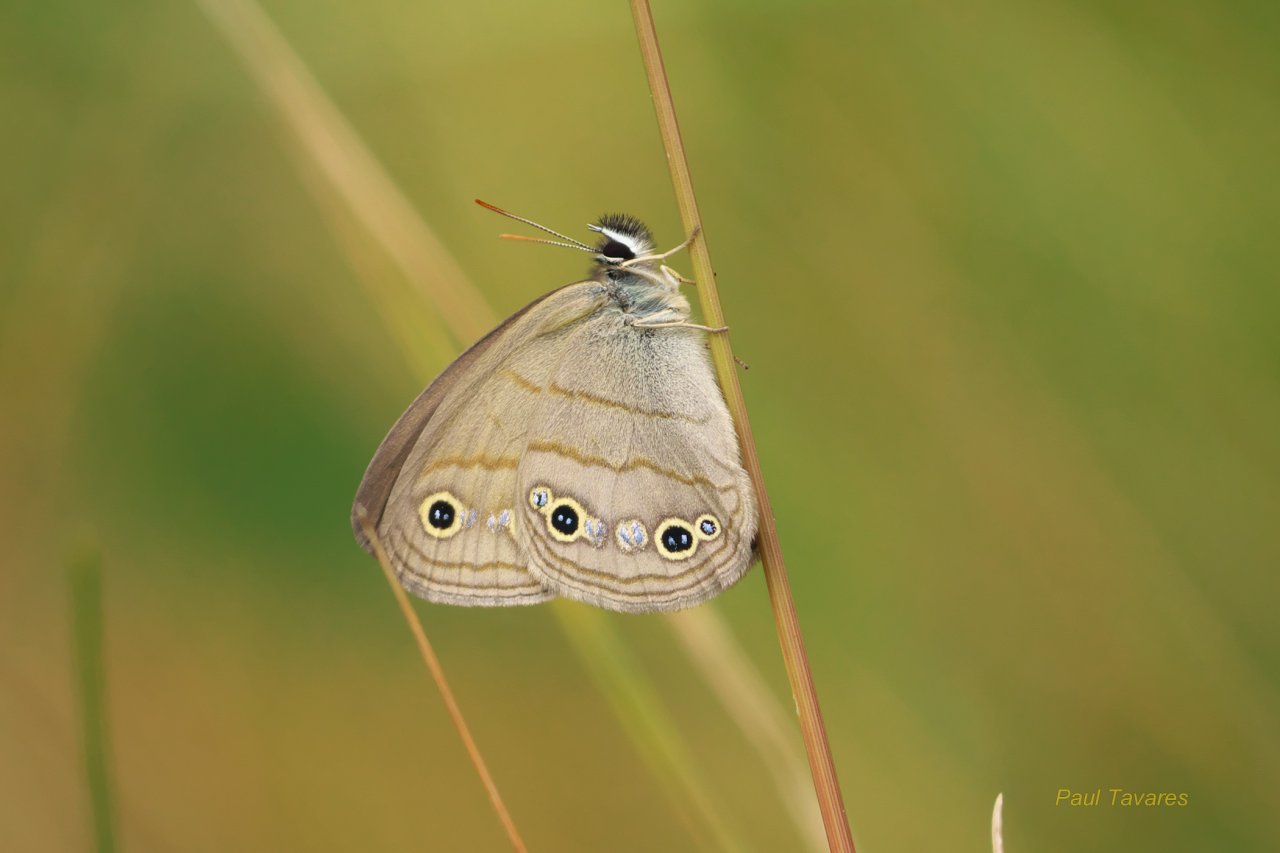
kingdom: Animalia
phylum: Arthropoda
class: Insecta
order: Lepidoptera
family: Nymphalidae
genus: Euptychia
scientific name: Euptychia cymela
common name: Little Wood Satyr
